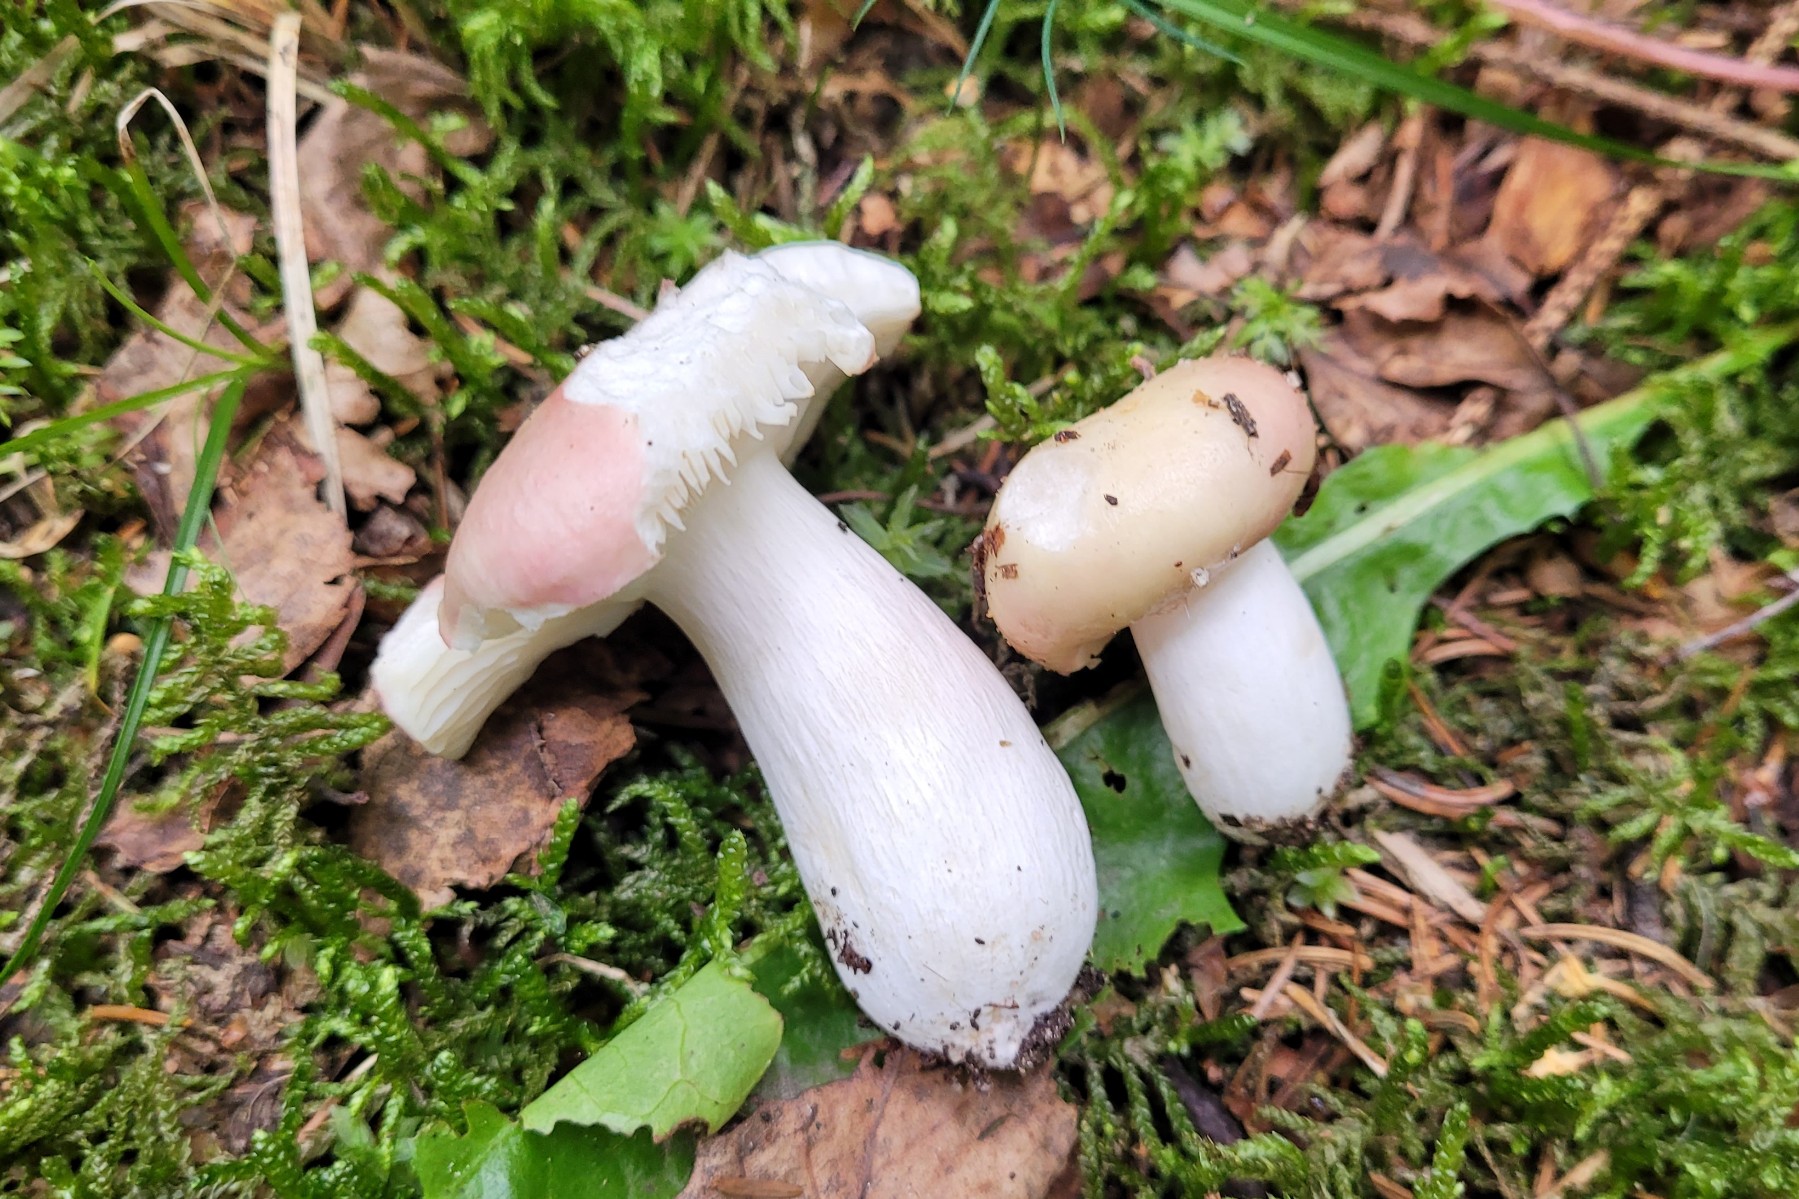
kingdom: Fungi
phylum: Basidiomycota
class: Agaricomycetes
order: Russulales
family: Russulaceae
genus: Russula
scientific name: Russula depallens
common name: falmende skørhat
